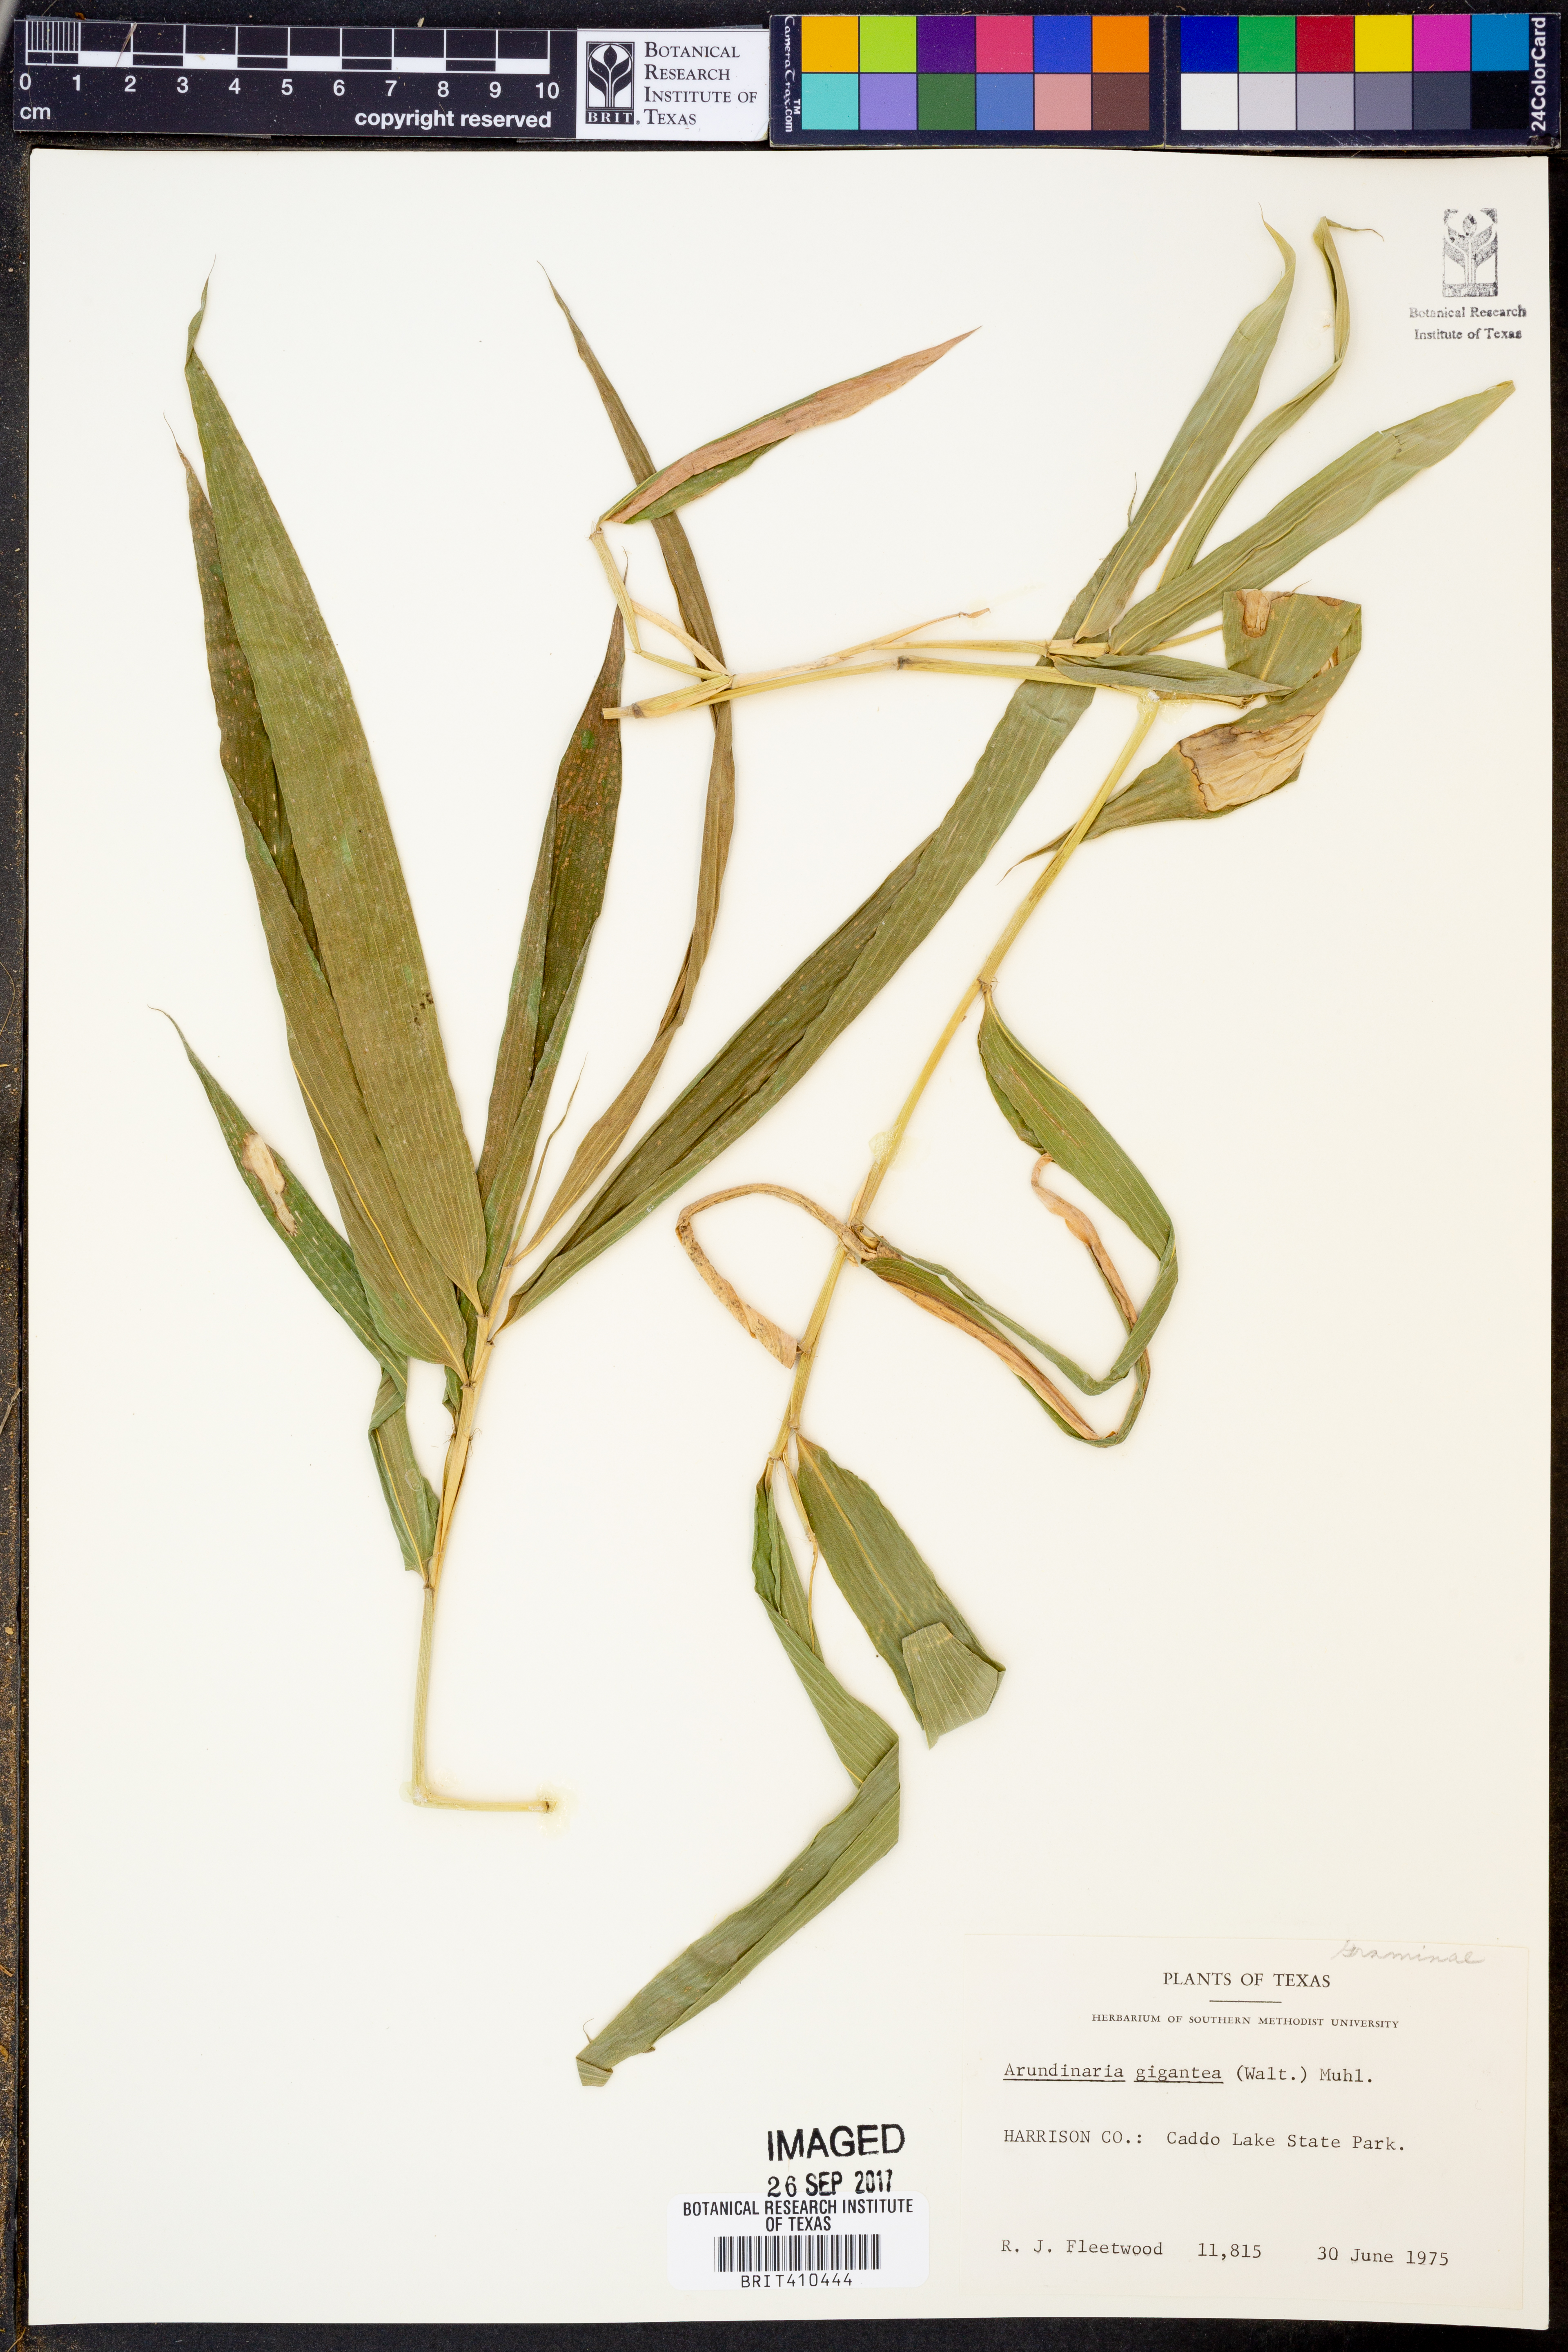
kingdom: Plantae
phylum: Tracheophyta
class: Liliopsida
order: Poales
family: Poaceae
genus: Arundinaria
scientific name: Arundinaria gigantea
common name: Giant cane
